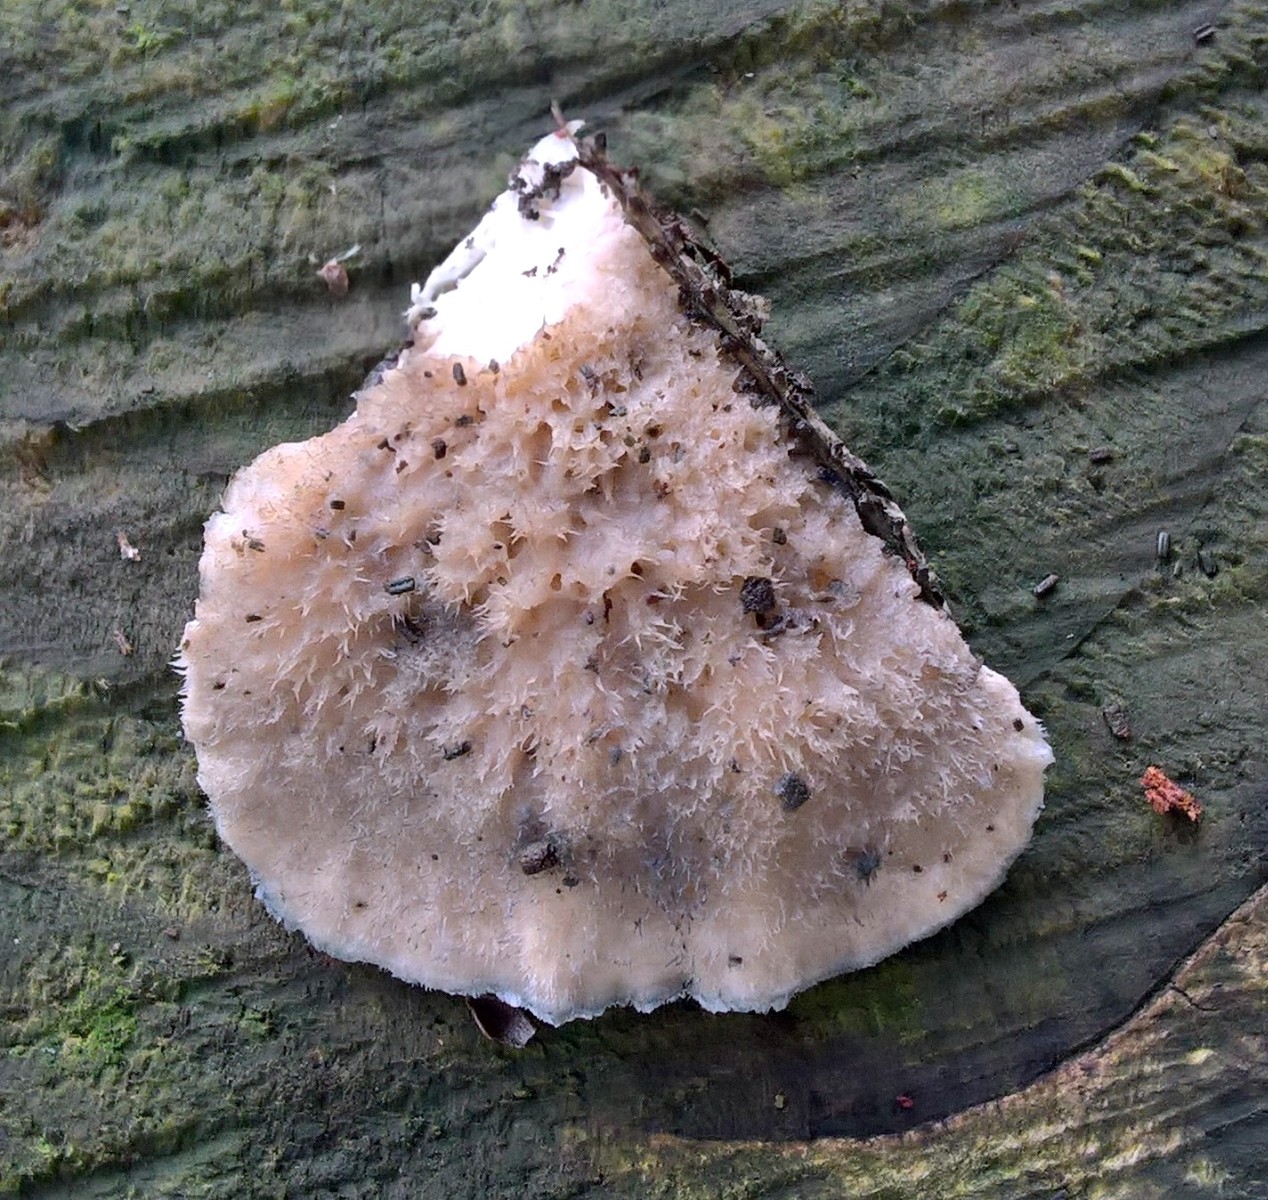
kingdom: Fungi
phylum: Basidiomycota
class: Agaricomycetes
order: Polyporales
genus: Amaropostia
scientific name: Amaropostia stiptica
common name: bitter kødporesvamp
